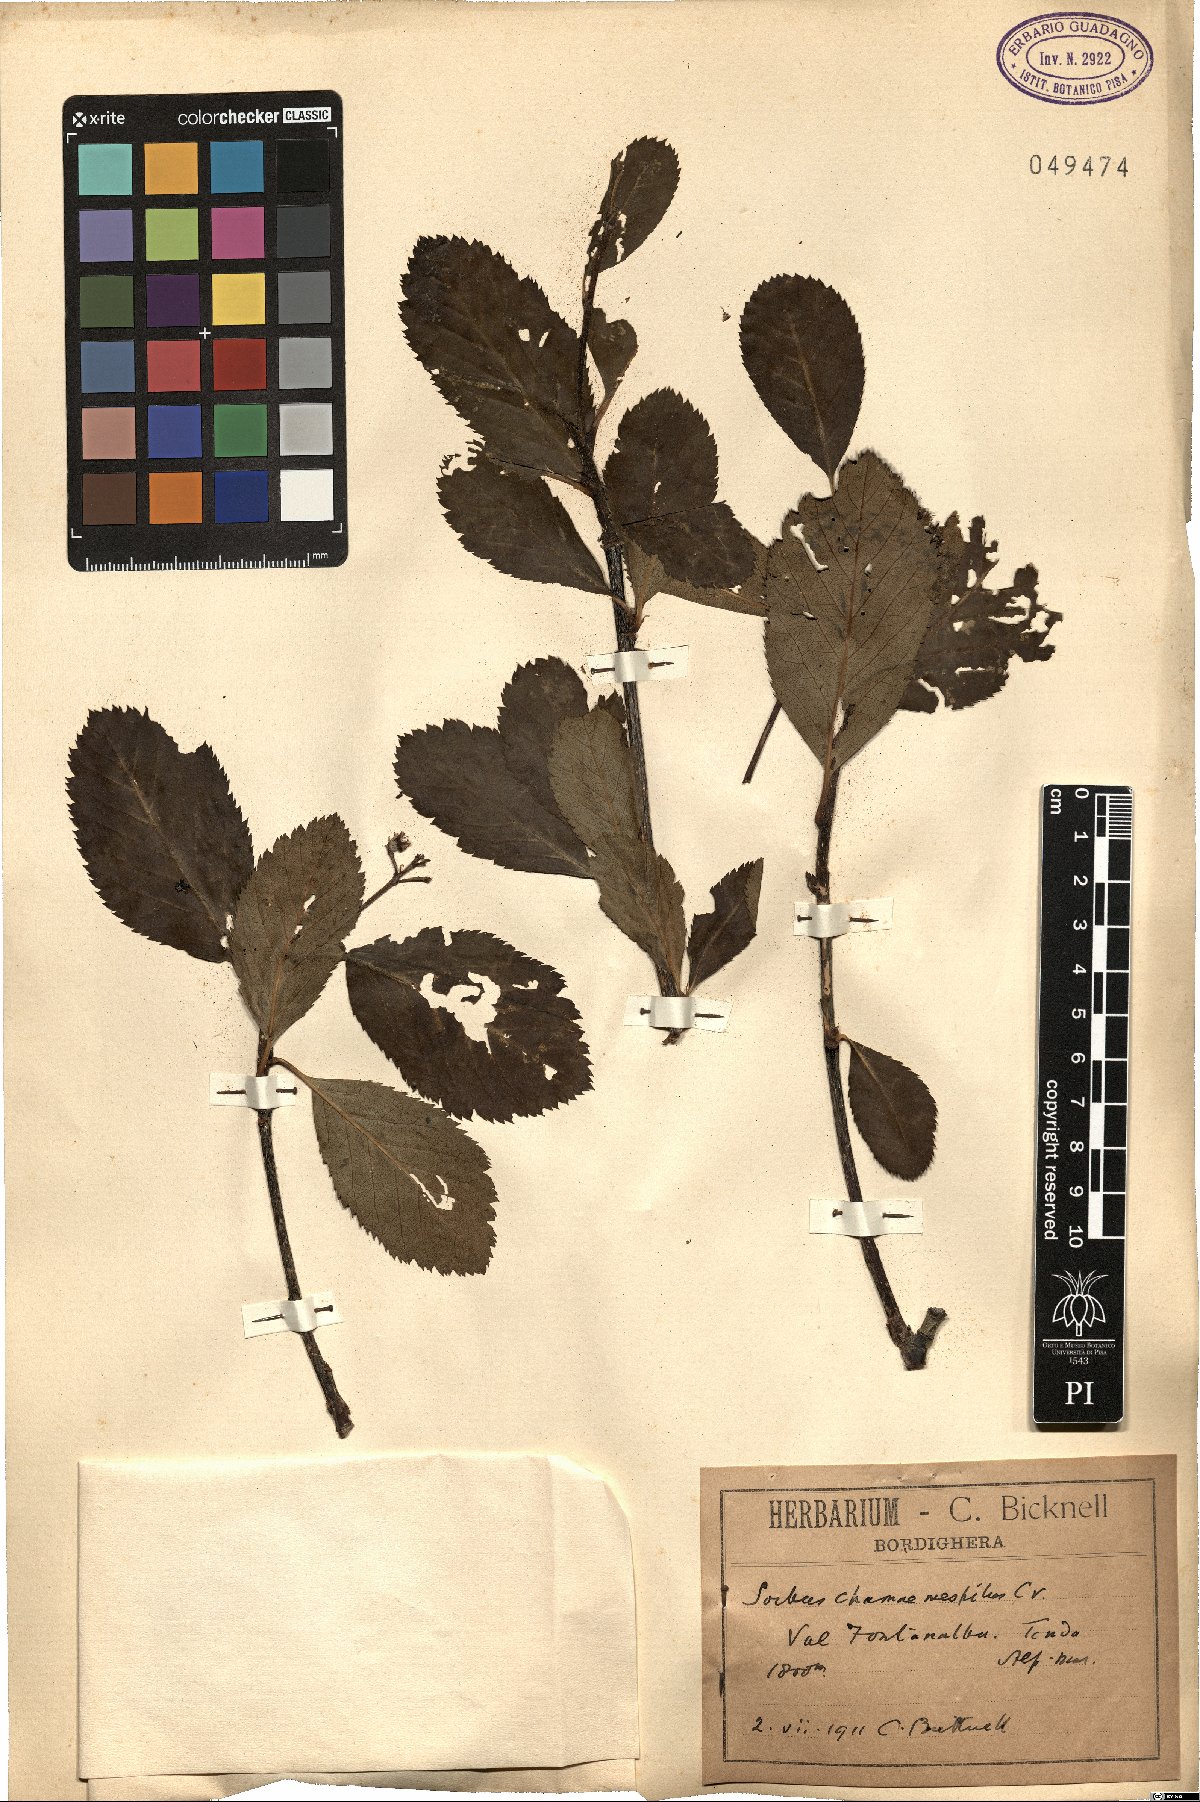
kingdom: Plantae
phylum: Tracheophyta
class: Magnoliopsida
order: Rosales
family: Rosaceae
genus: Chamaemespilus
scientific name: Chamaemespilus alpina
